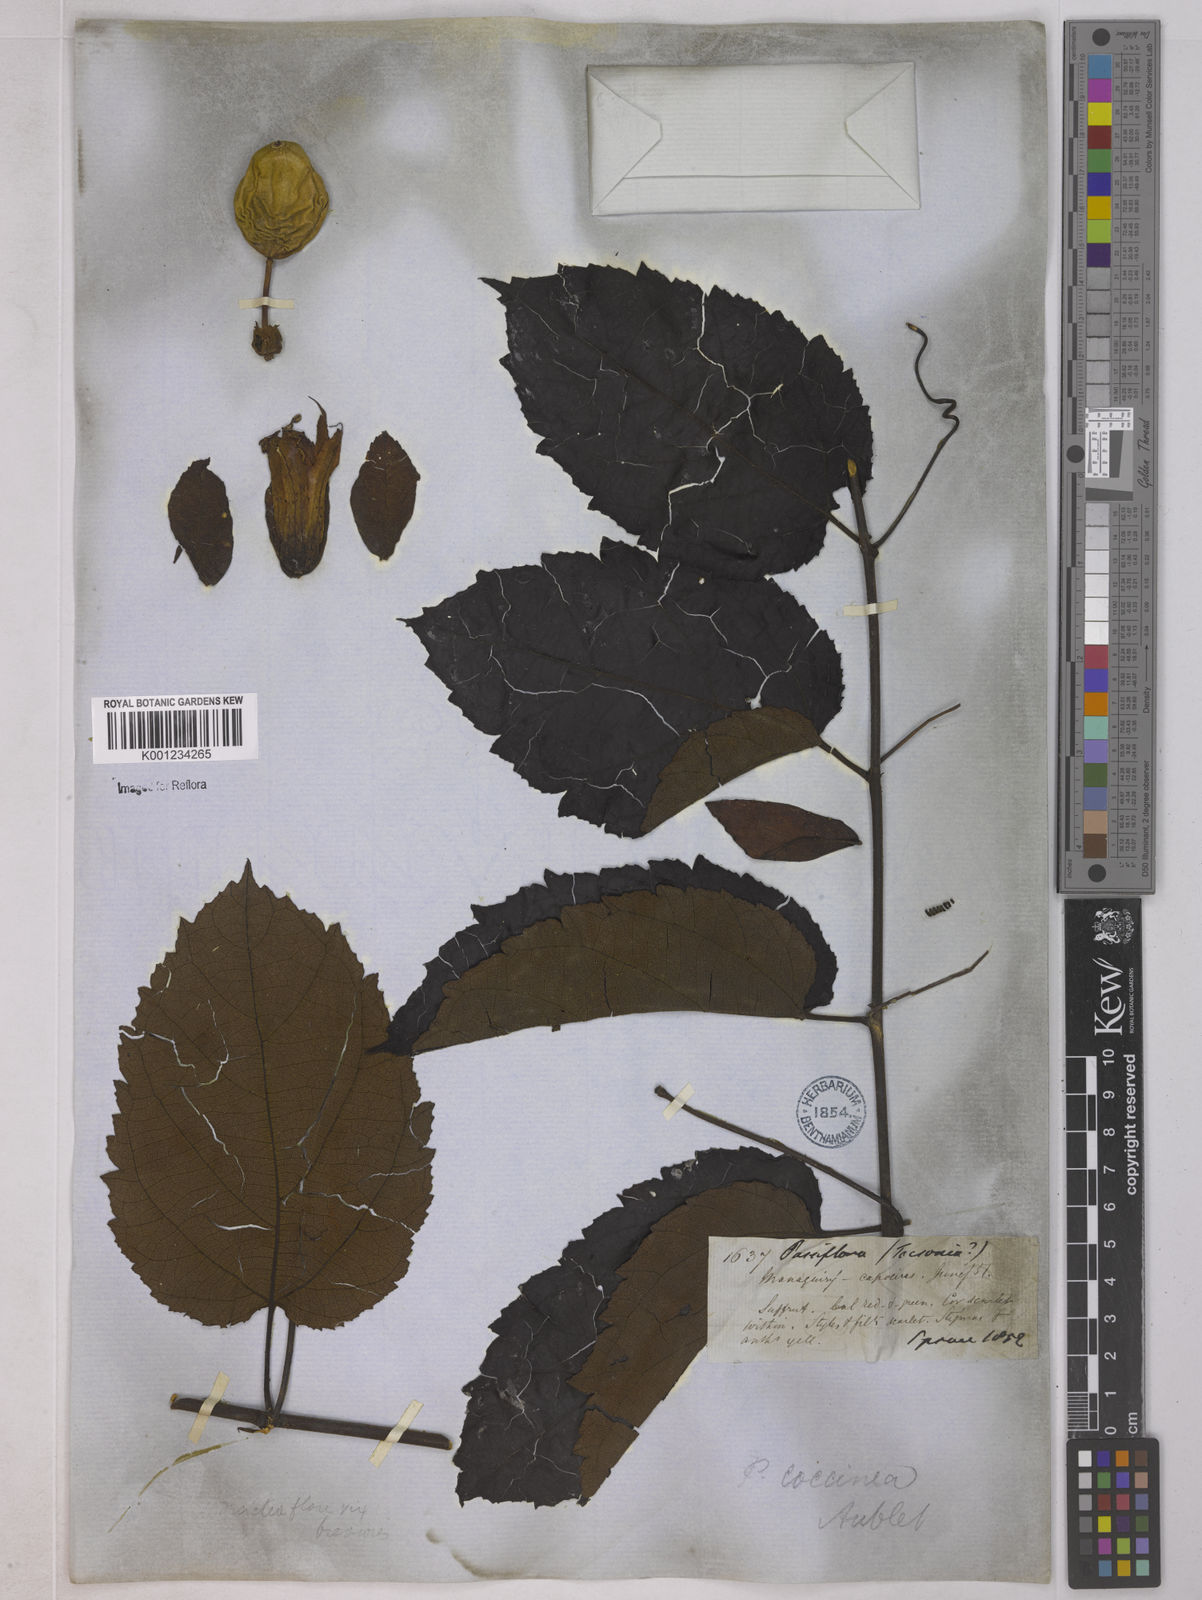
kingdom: Plantae
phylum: Tracheophyta
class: Magnoliopsida
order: Malpighiales
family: Passifloraceae
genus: Passiflora
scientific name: Passiflora coccinea
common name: Scarlet passionflower
